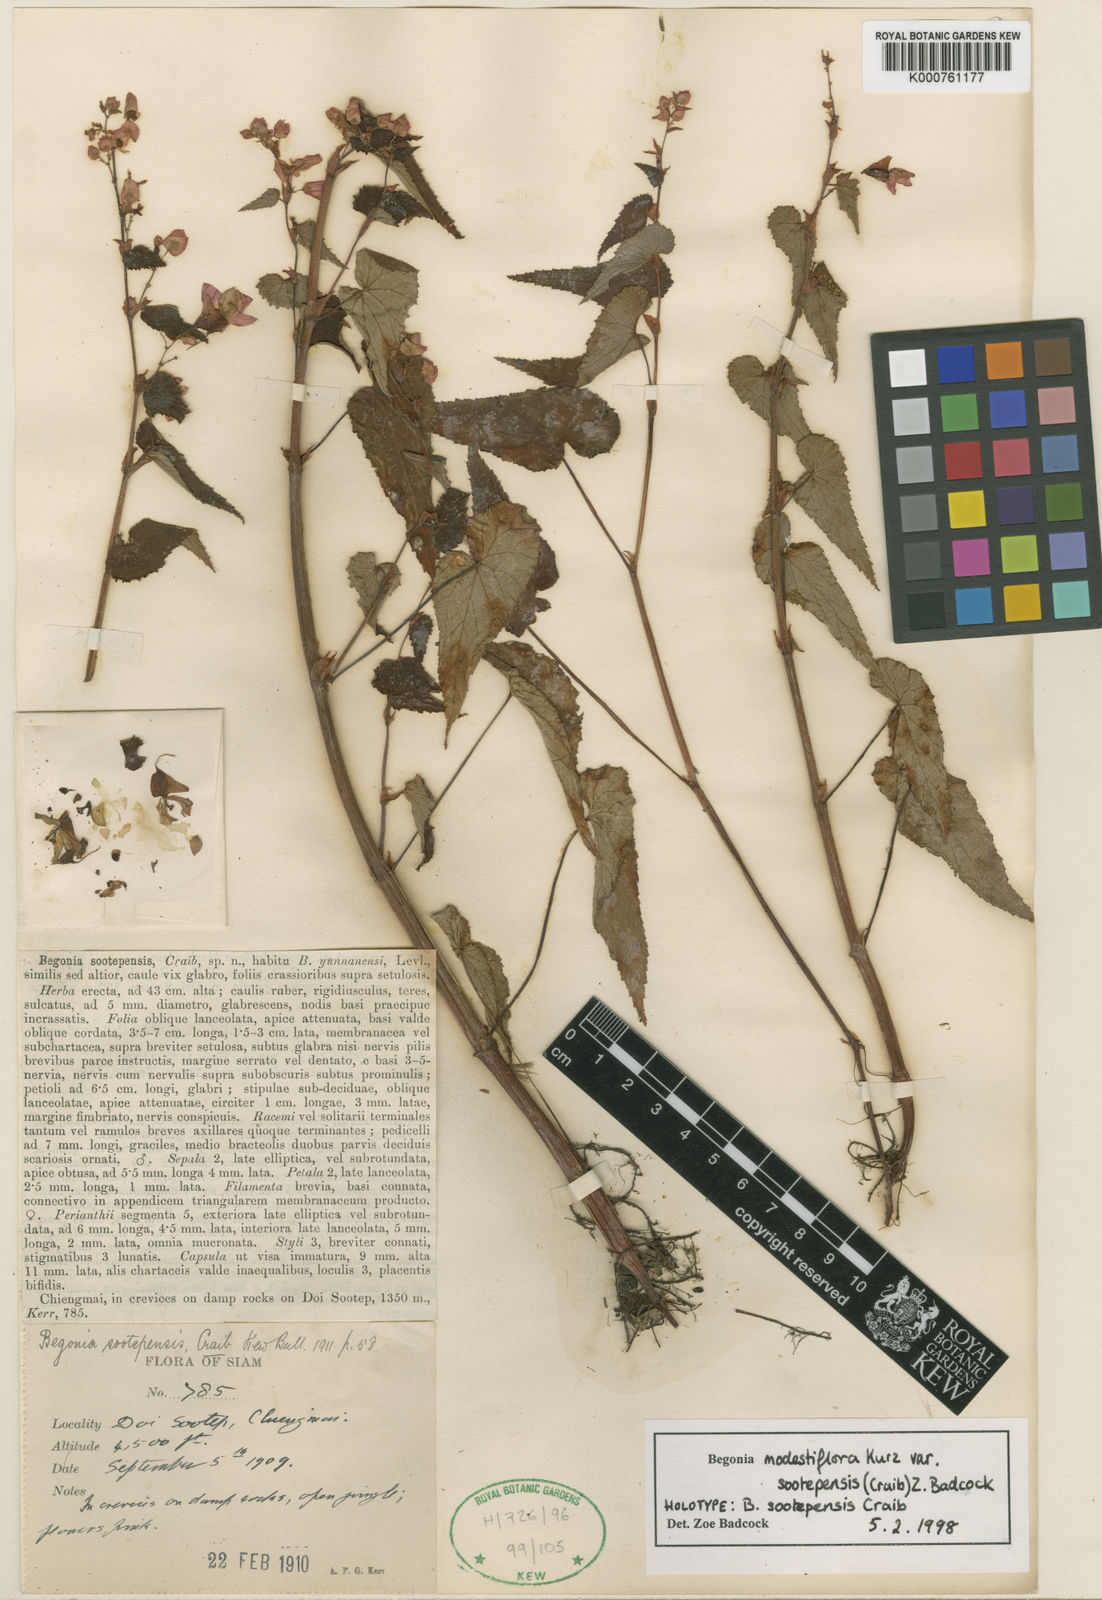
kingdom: Plantae
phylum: Tracheophyta
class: Magnoliopsida
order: Cucurbitales
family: Begoniaceae
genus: Begonia
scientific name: Begonia modestiflora
